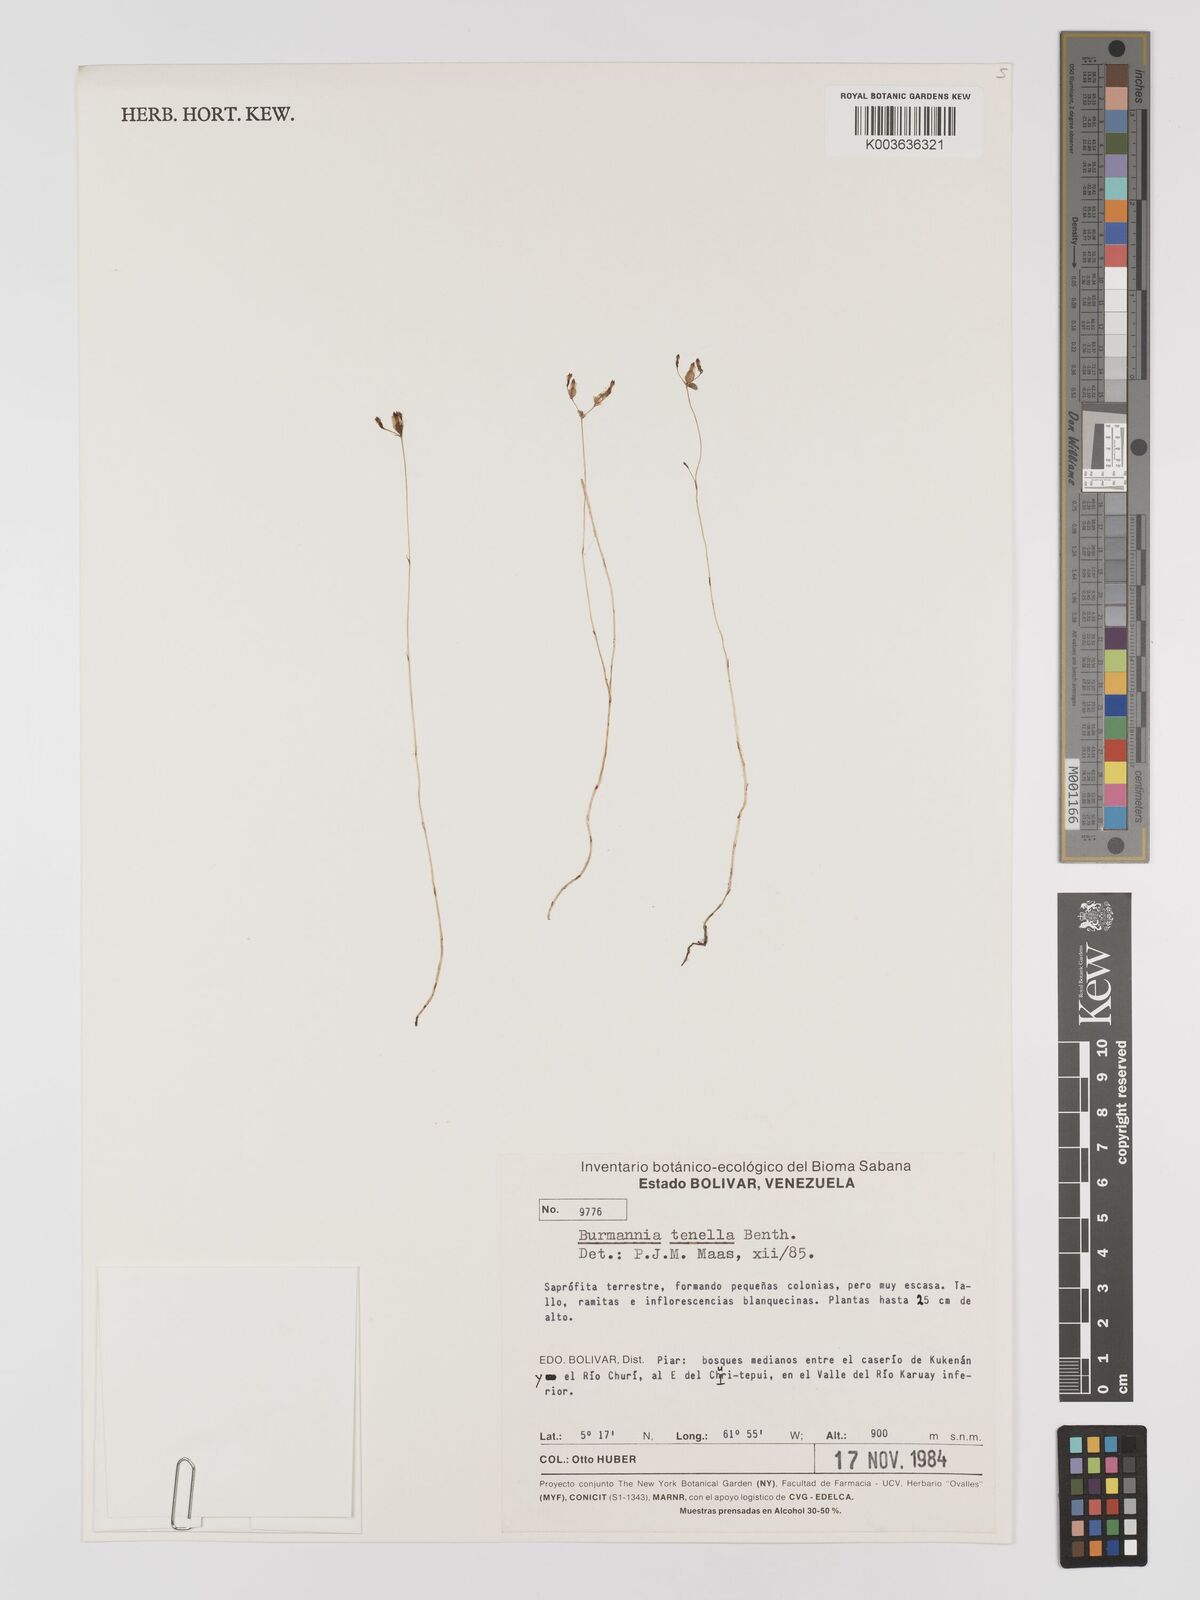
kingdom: Plantae
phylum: Tracheophyta
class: Liliopsida
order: Dioscoreales
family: Burmanniaceae
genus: Burmannia
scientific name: Burmannia tenella
